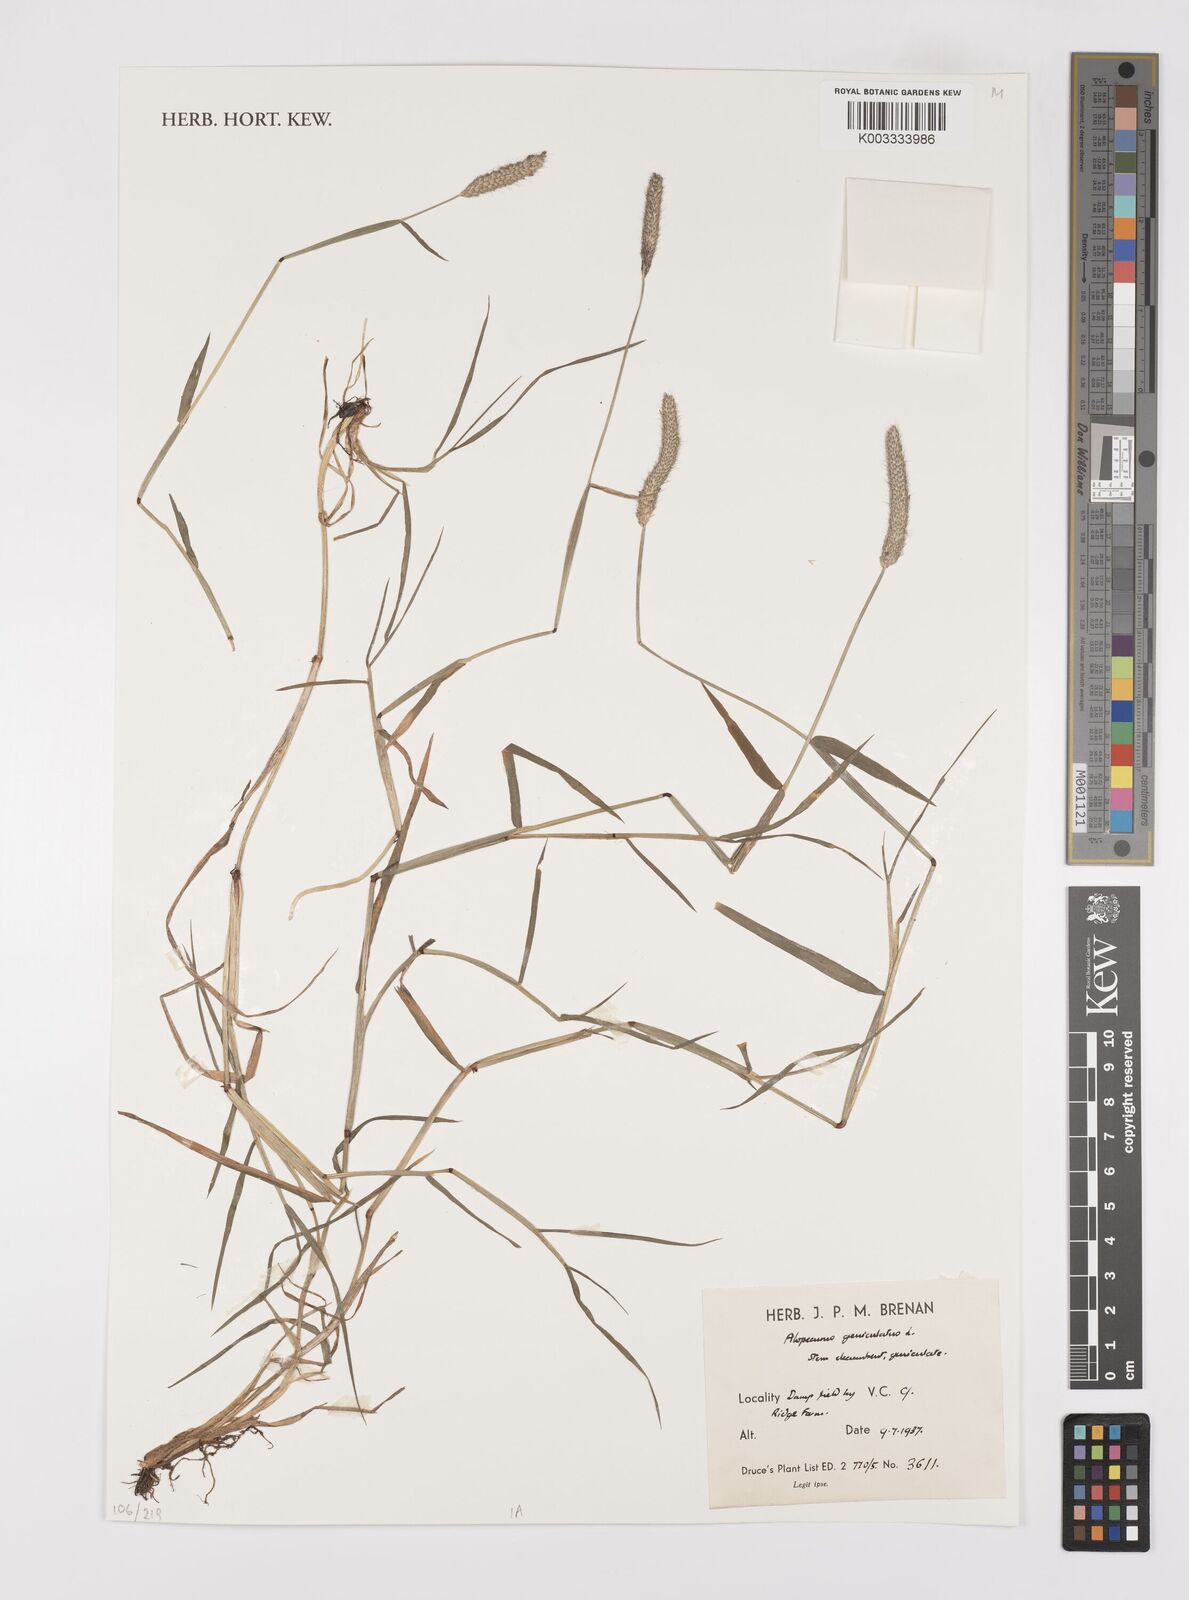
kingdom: Plantae
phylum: Tracheophyta
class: Liliopsida
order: Poales
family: Poaceae
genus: Alopecurus
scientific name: Alopecurus geniculatus
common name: Water foxtail
